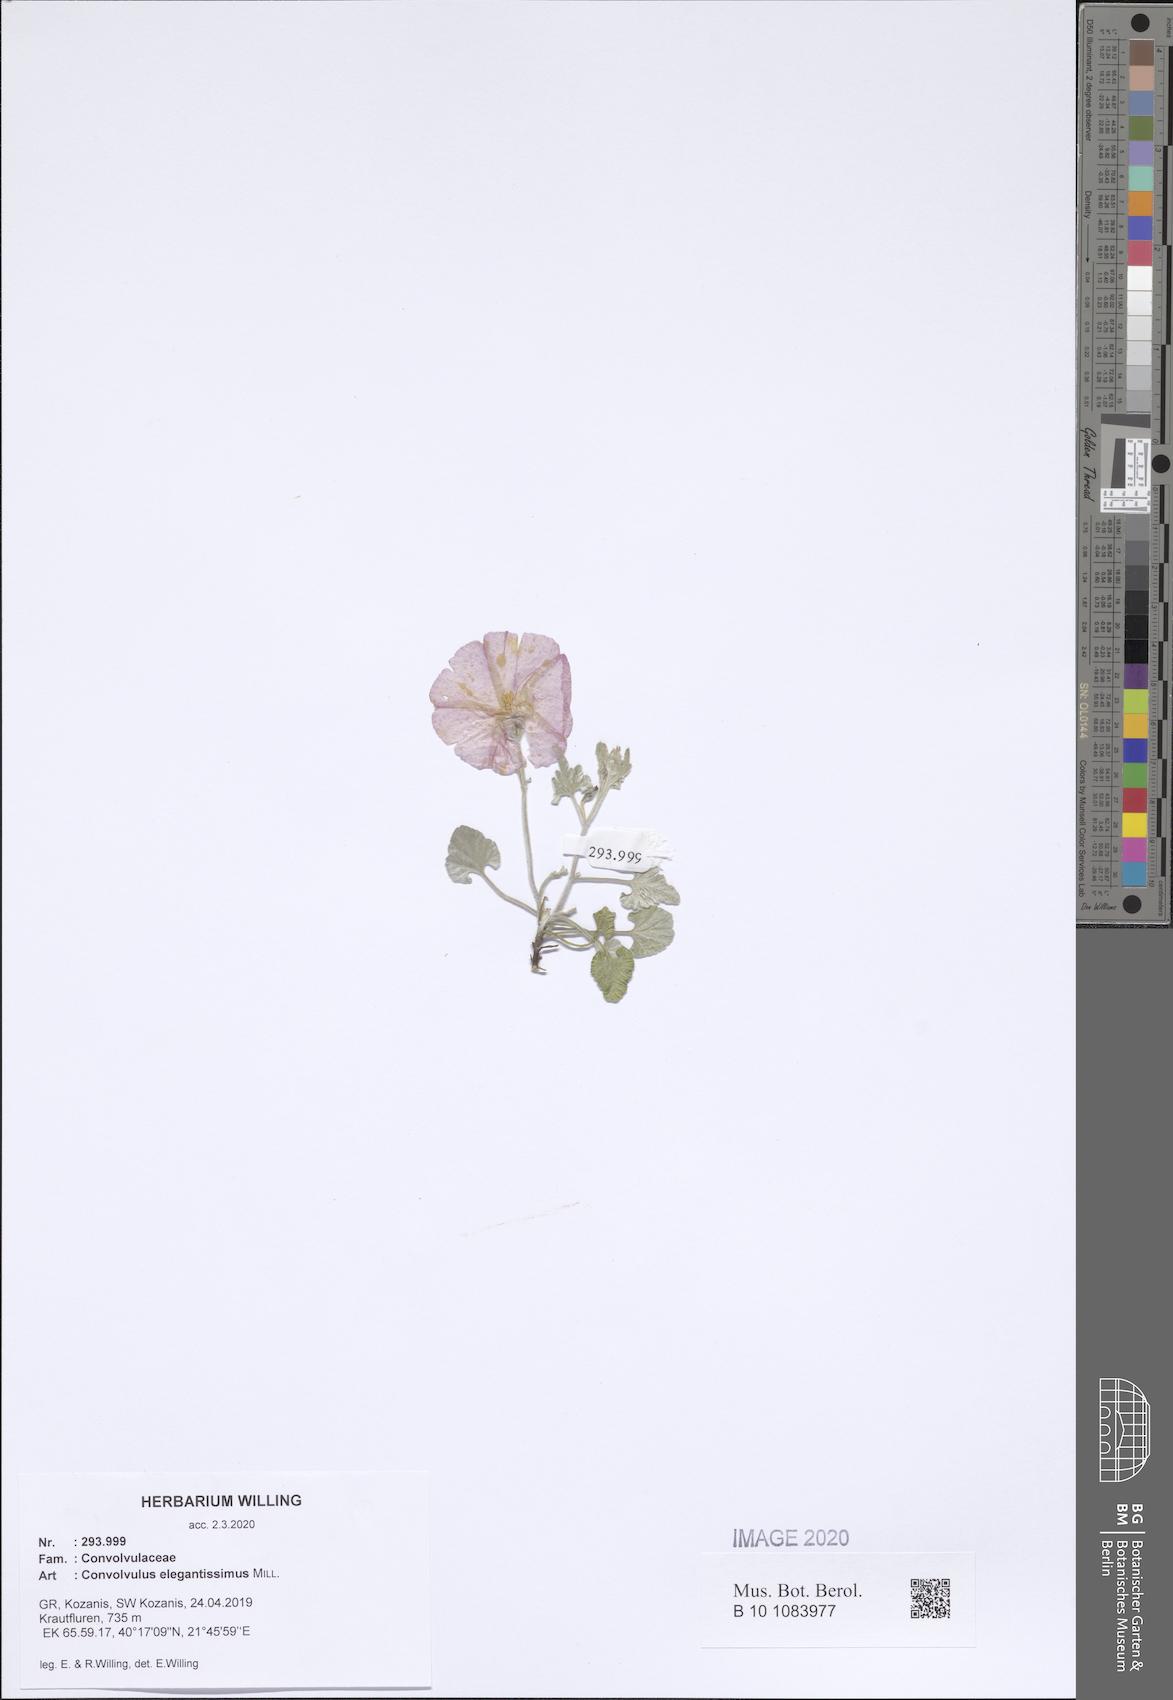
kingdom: Plantae
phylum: Tracheophyta
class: Magnoliopsida
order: Solanales
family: Convolvulaceae
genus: Convolvulus
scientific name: Convolvulus elegantissimus
